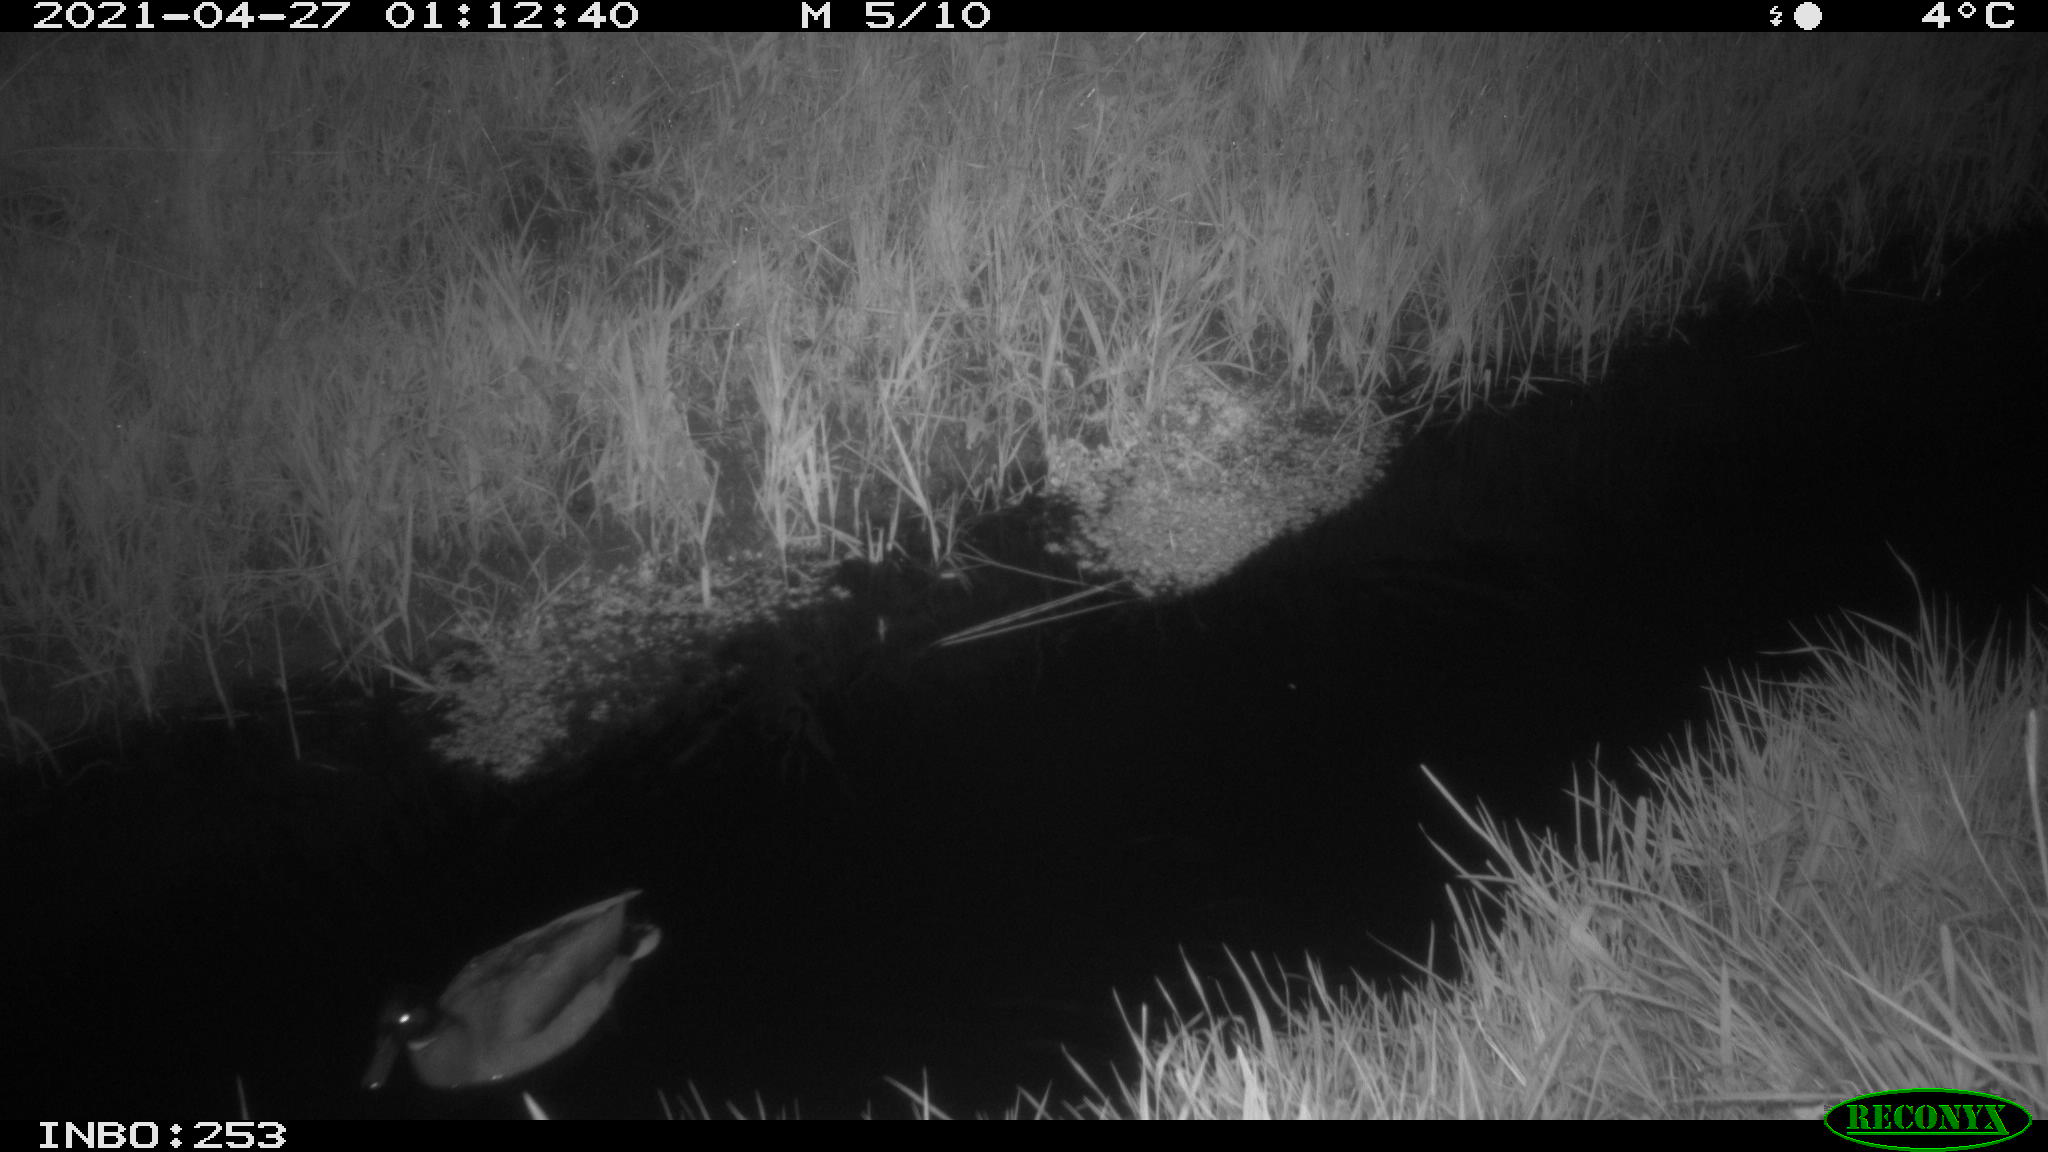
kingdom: Animalia
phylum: Chordata
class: Aves
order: Anseriformes
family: Anatidae
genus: Anas
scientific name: Anas platyrhynchos
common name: Mallard
